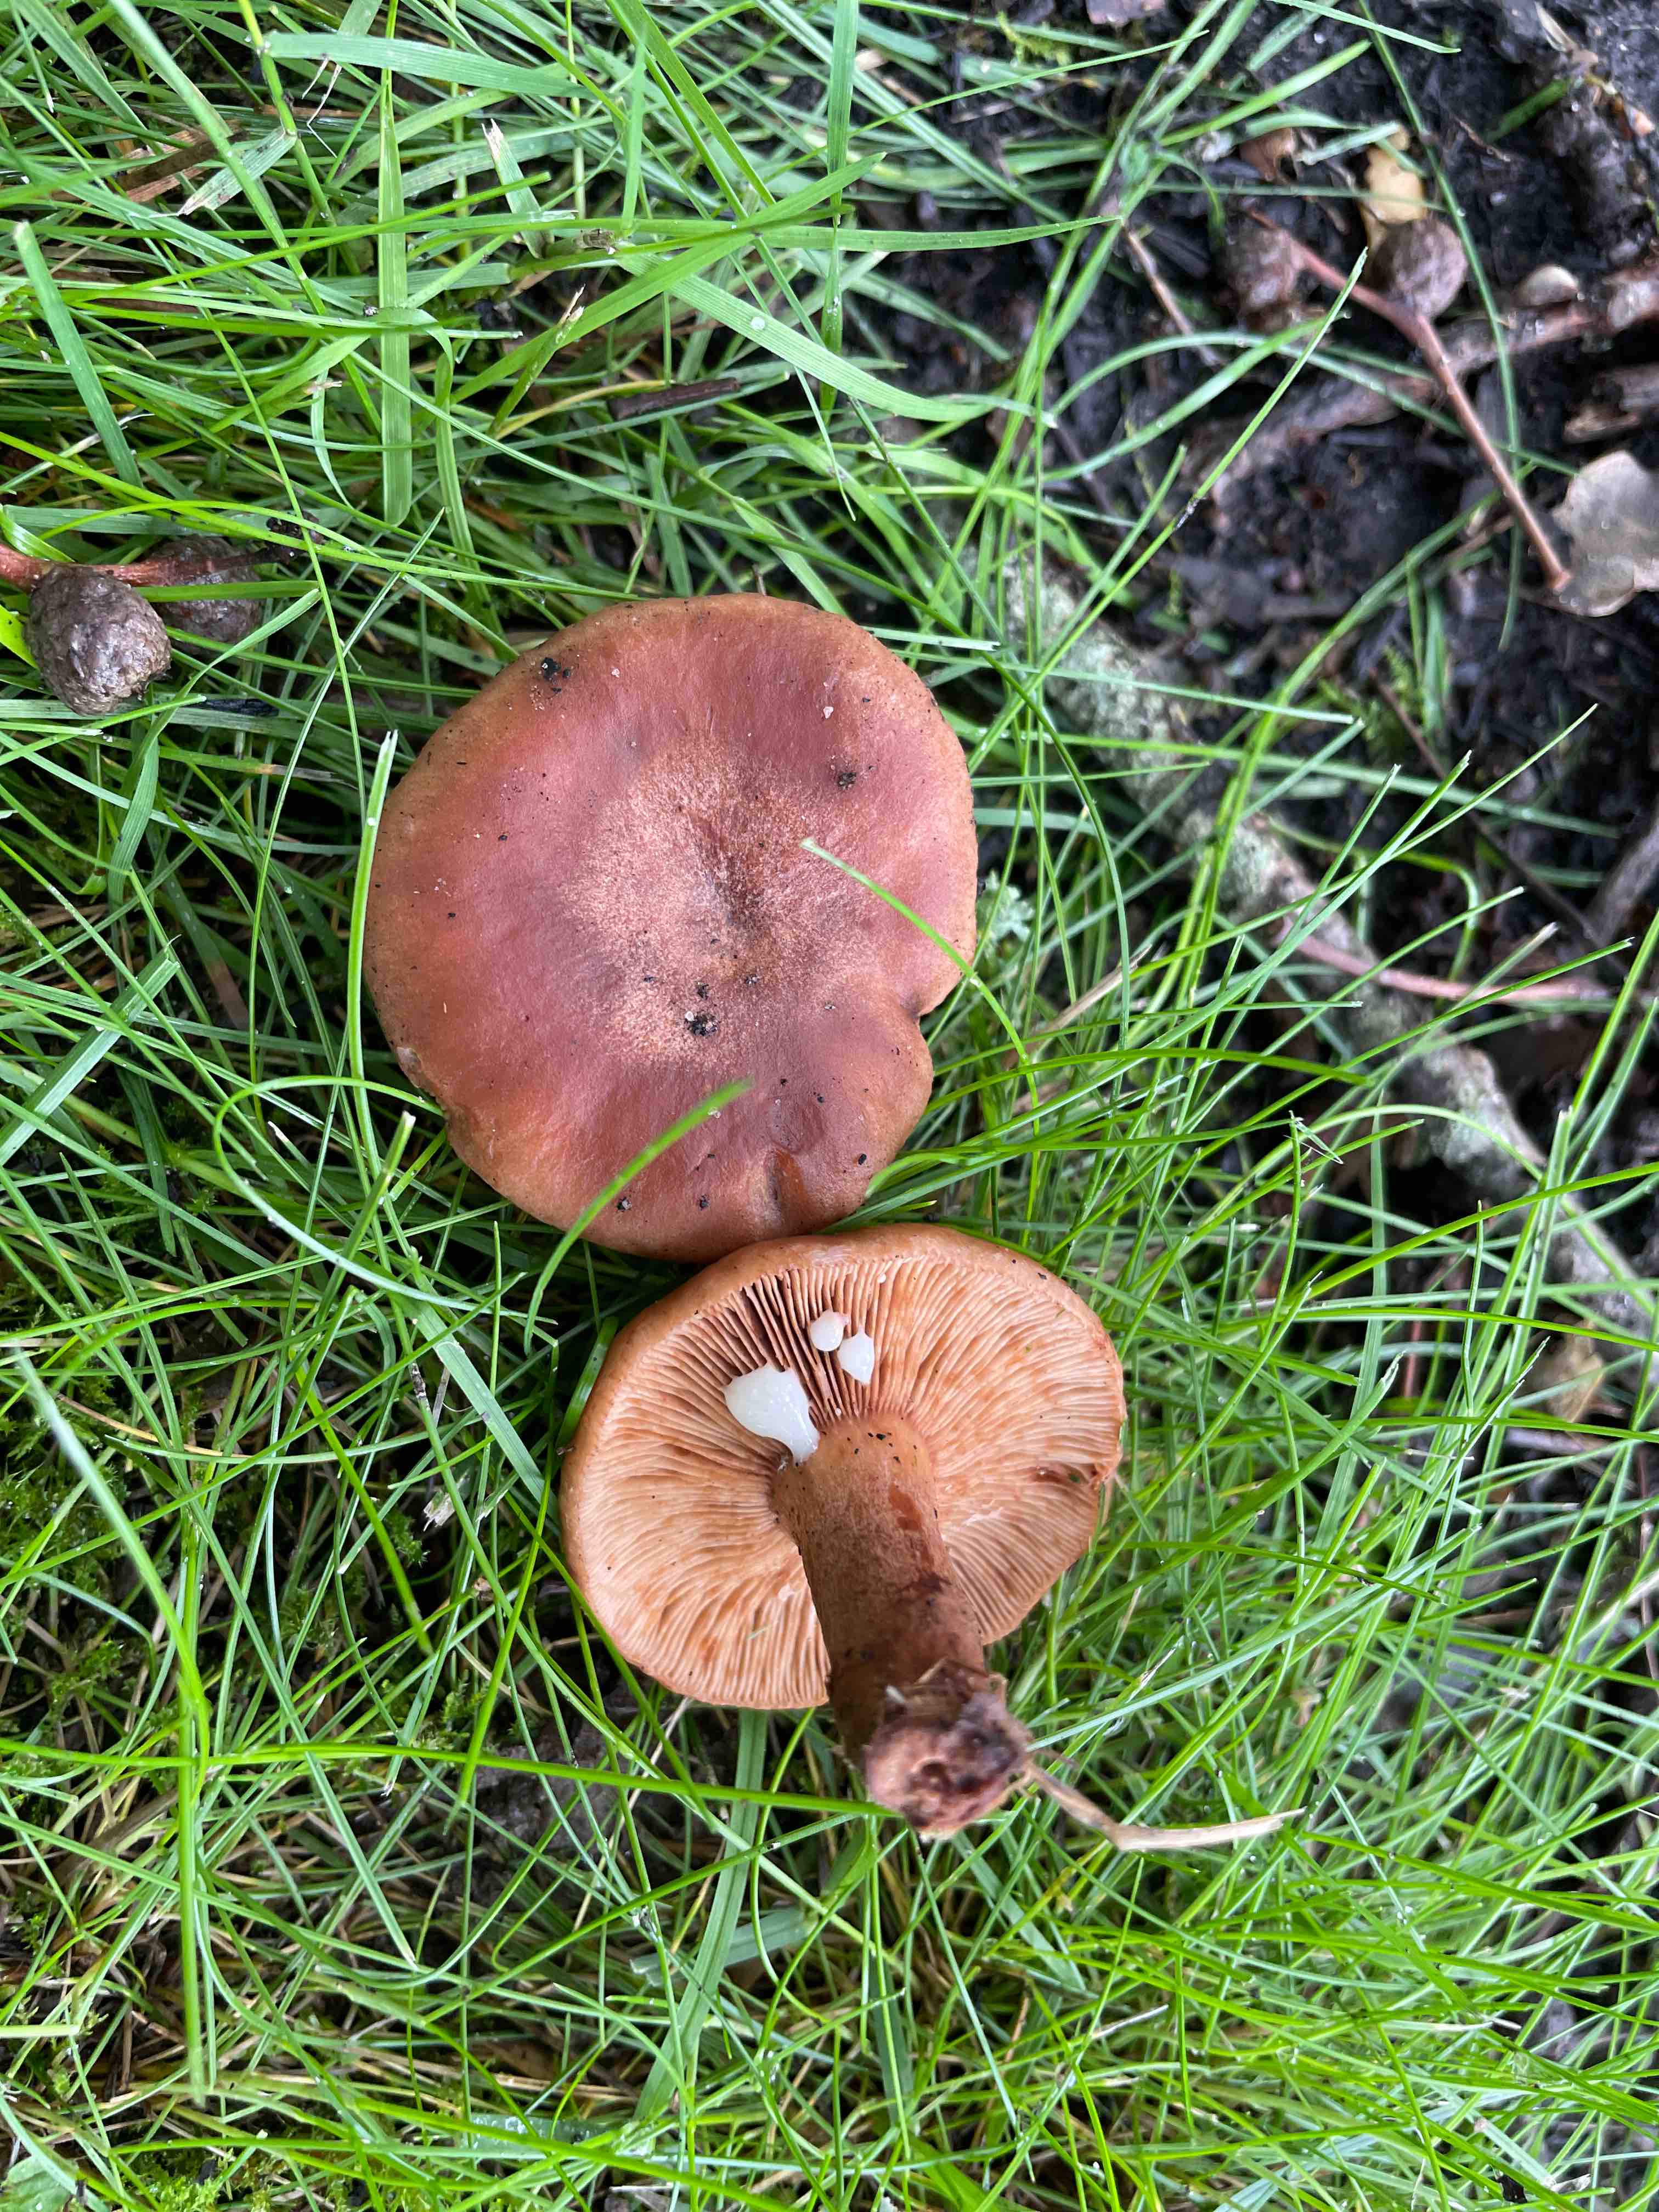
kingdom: Fungi
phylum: Basidiomycota
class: Agaricomycetes
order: Russulales
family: Russulaceae
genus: Lactarius
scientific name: Lactarius quietus
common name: ege-mælkehat
